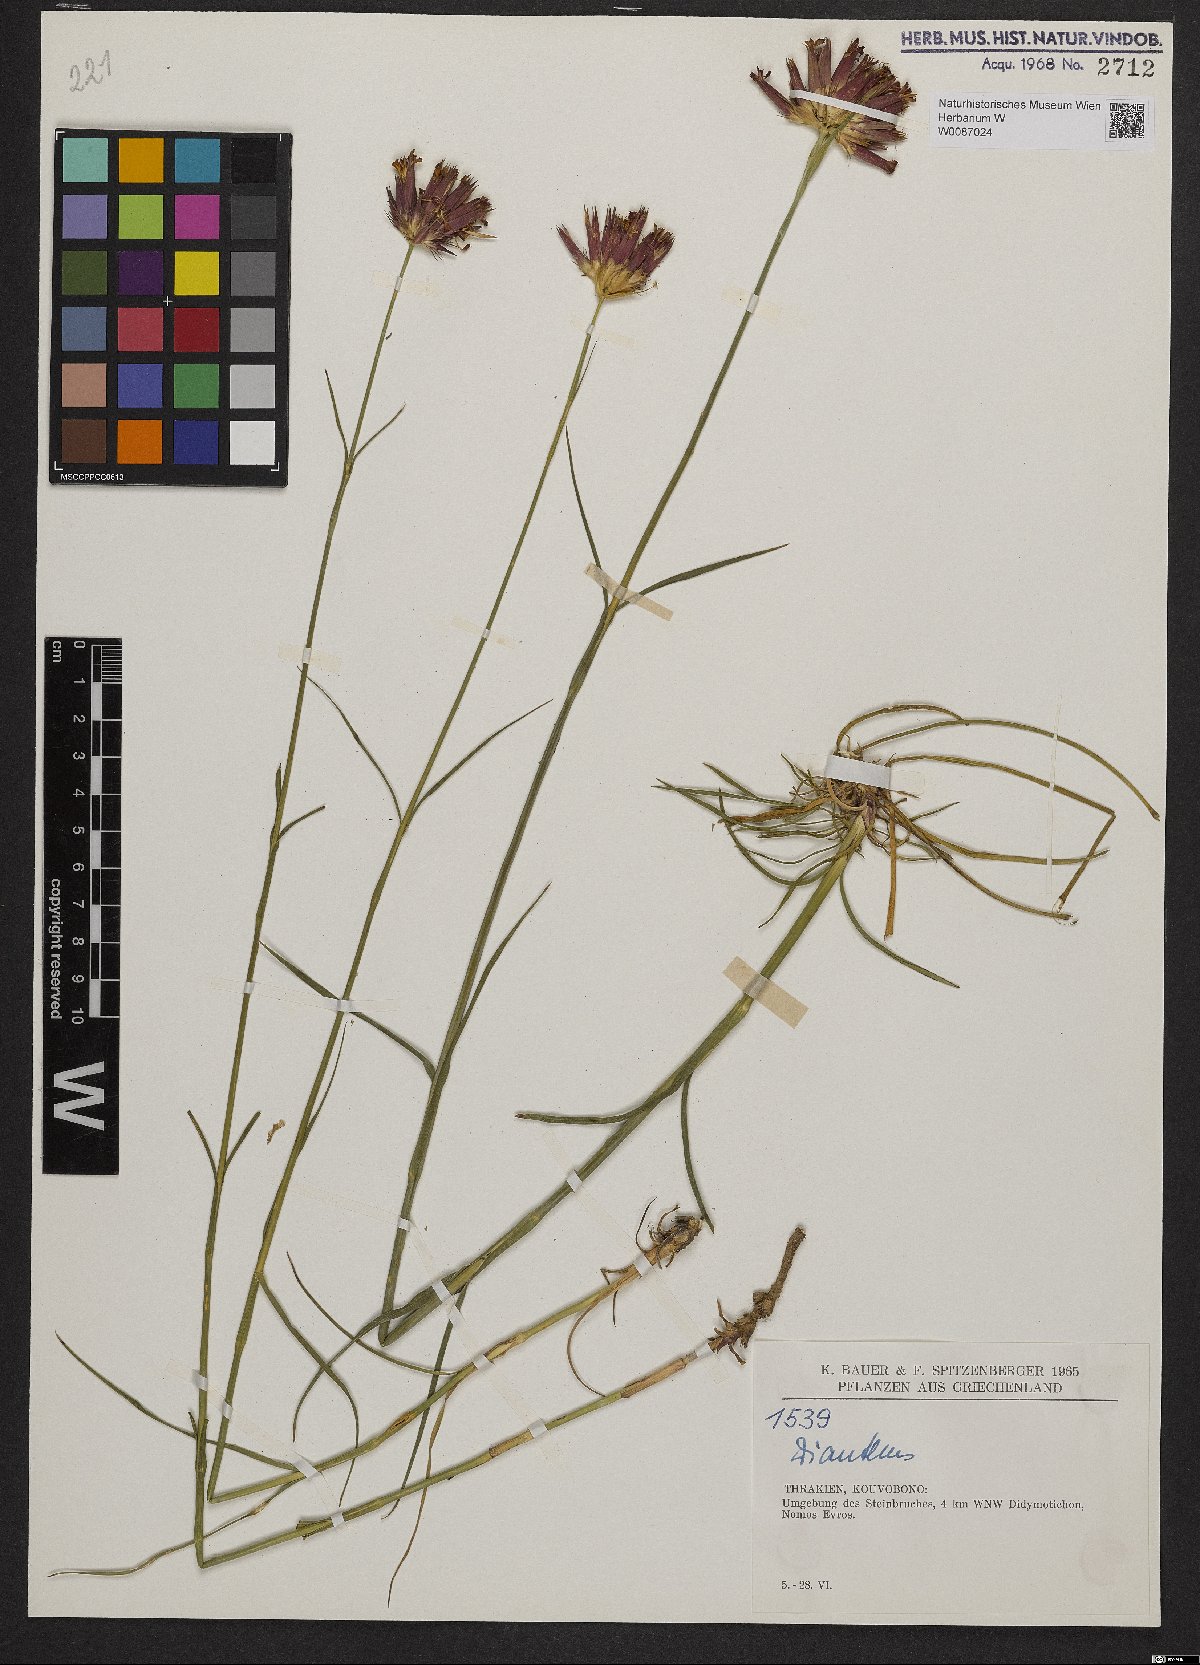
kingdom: Plantae
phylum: Tracheophyta
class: Magnoliopsida
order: Caryophyllales
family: Caryophyllaceae
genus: Dianthus
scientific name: Dianthus cruentus
